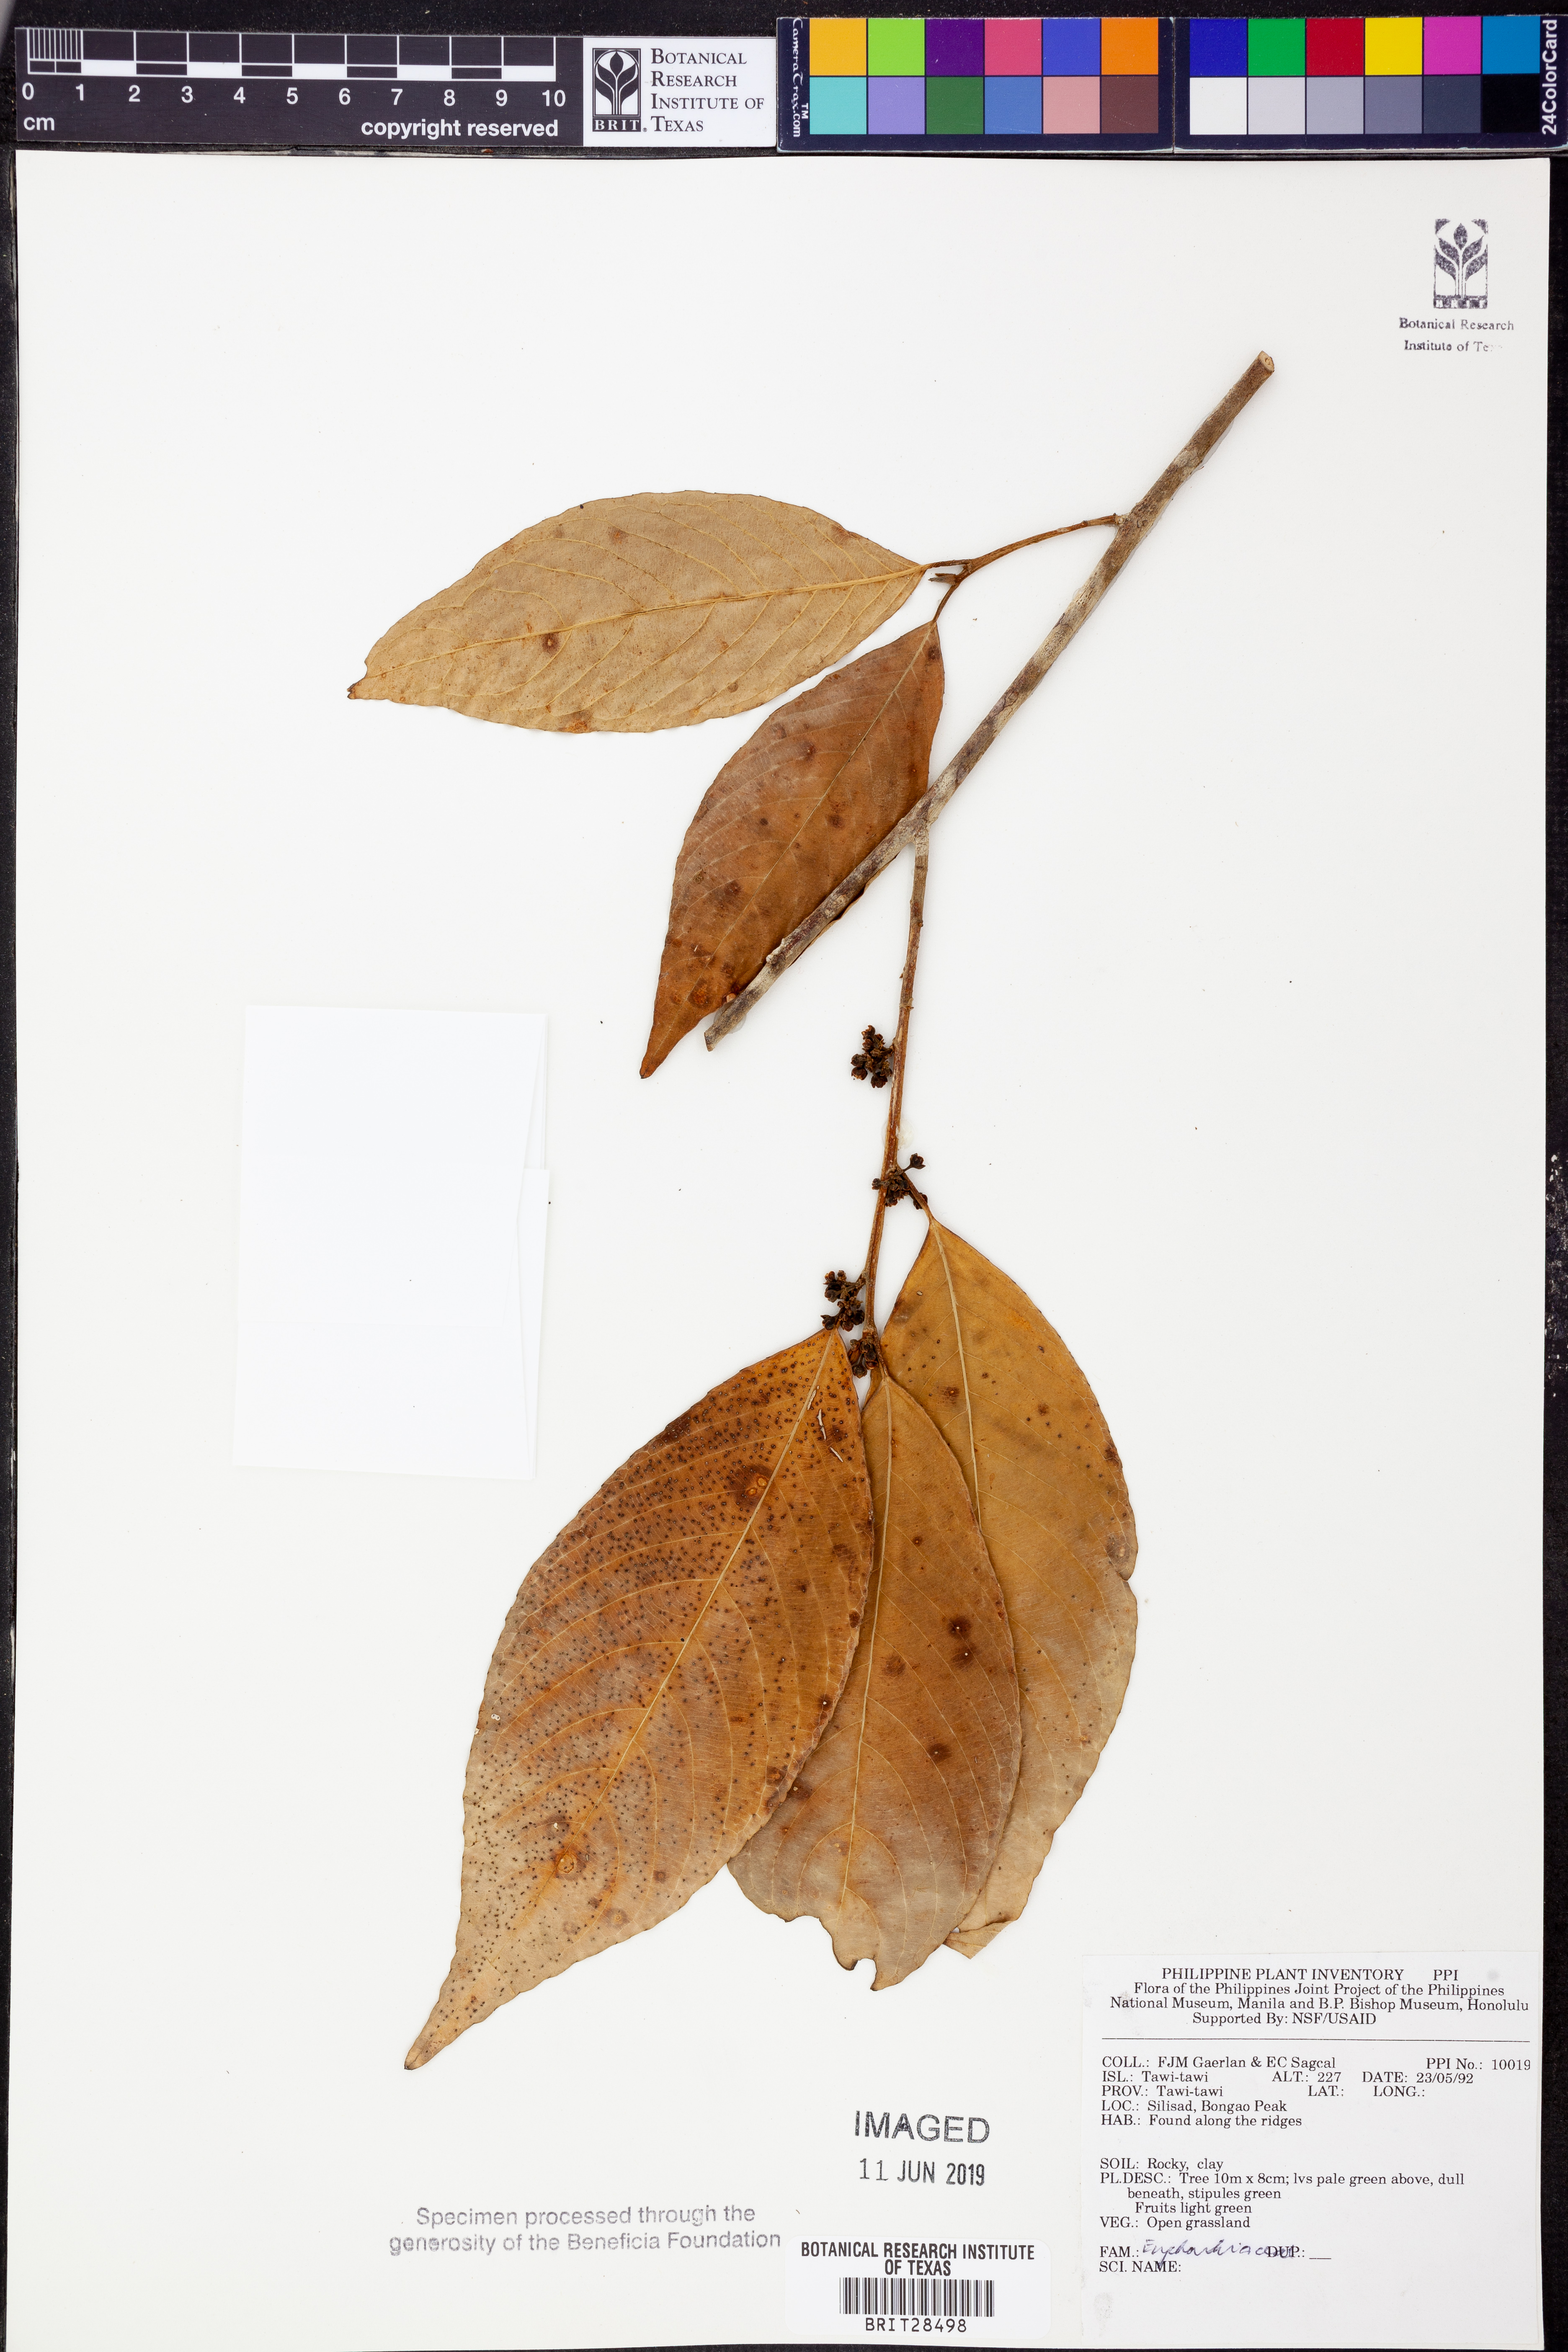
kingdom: Plantae
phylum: Tracheophyta
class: Magnoliopsida
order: Malpighiales
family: Euphorbiaceae
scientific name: Euphorbiaceae
